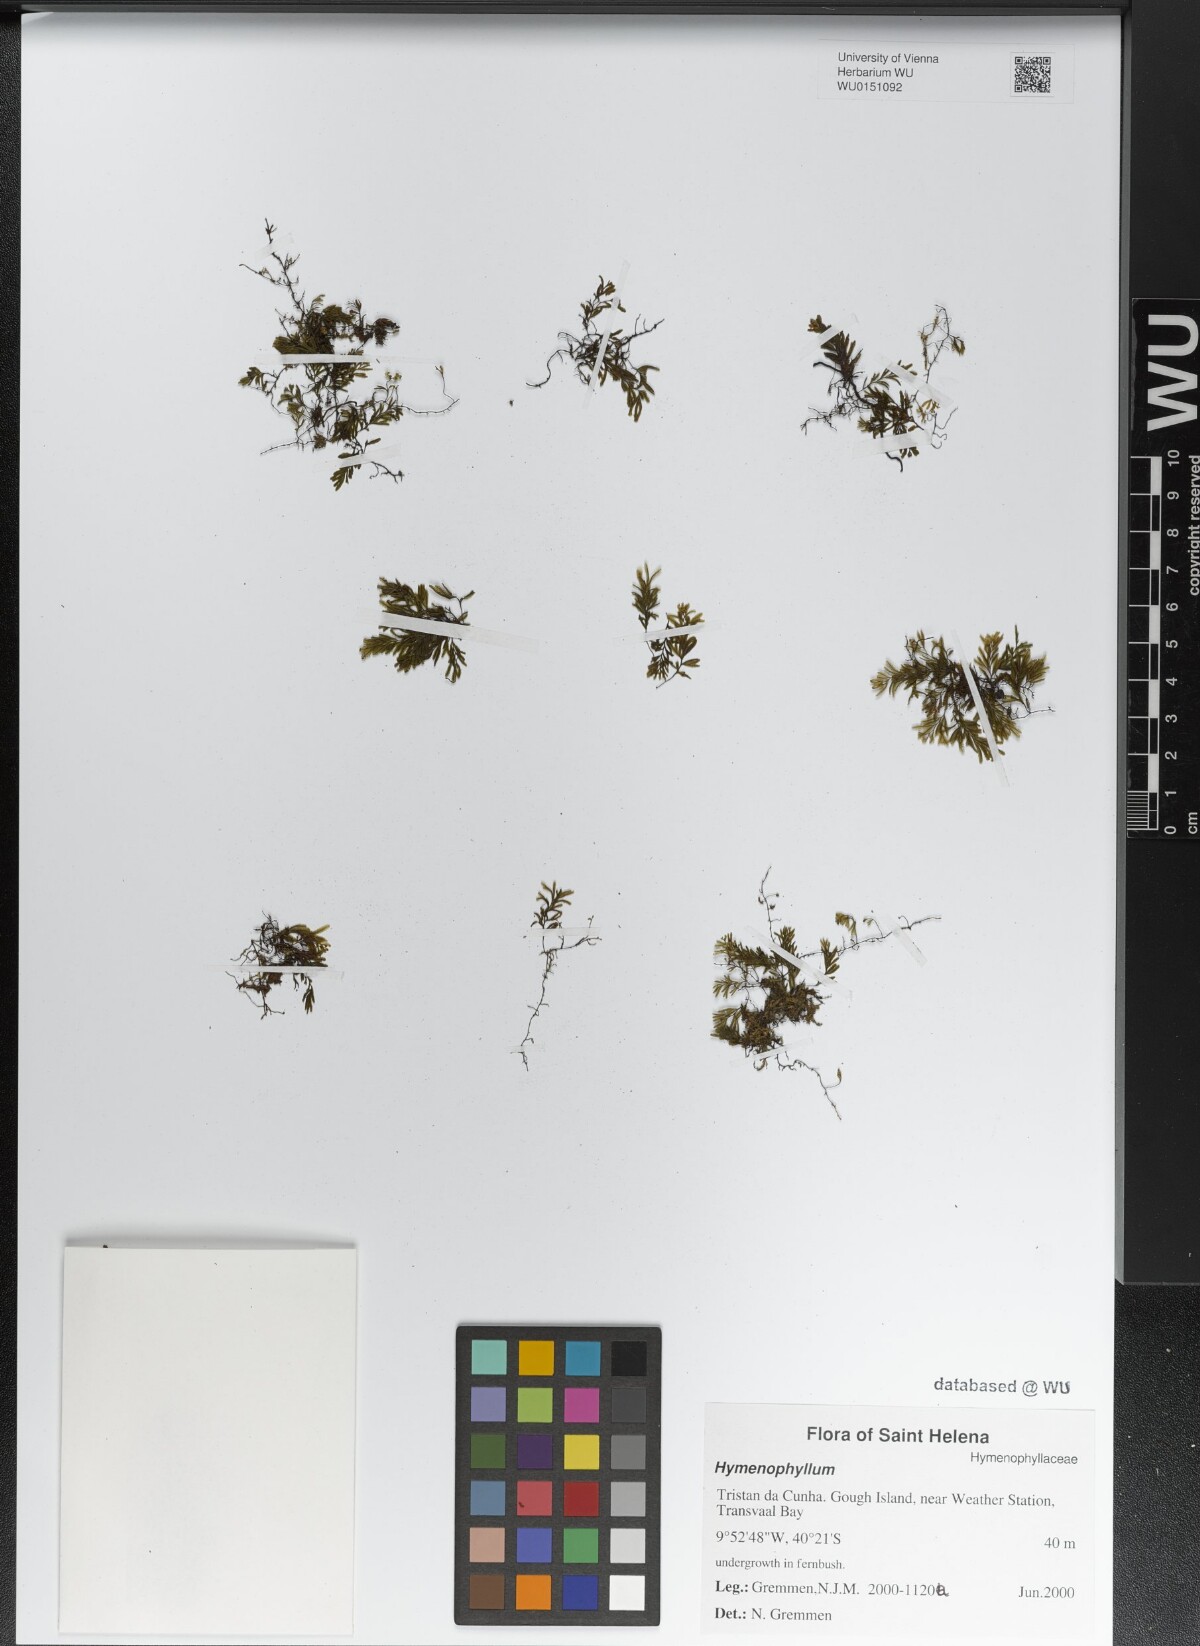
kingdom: Plantae
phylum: Tracheophyta
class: Polypodiopsida
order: Hymenophyllales
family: Hymenophyllaceae
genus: Hymenophyllum
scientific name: Hymenophyllum
